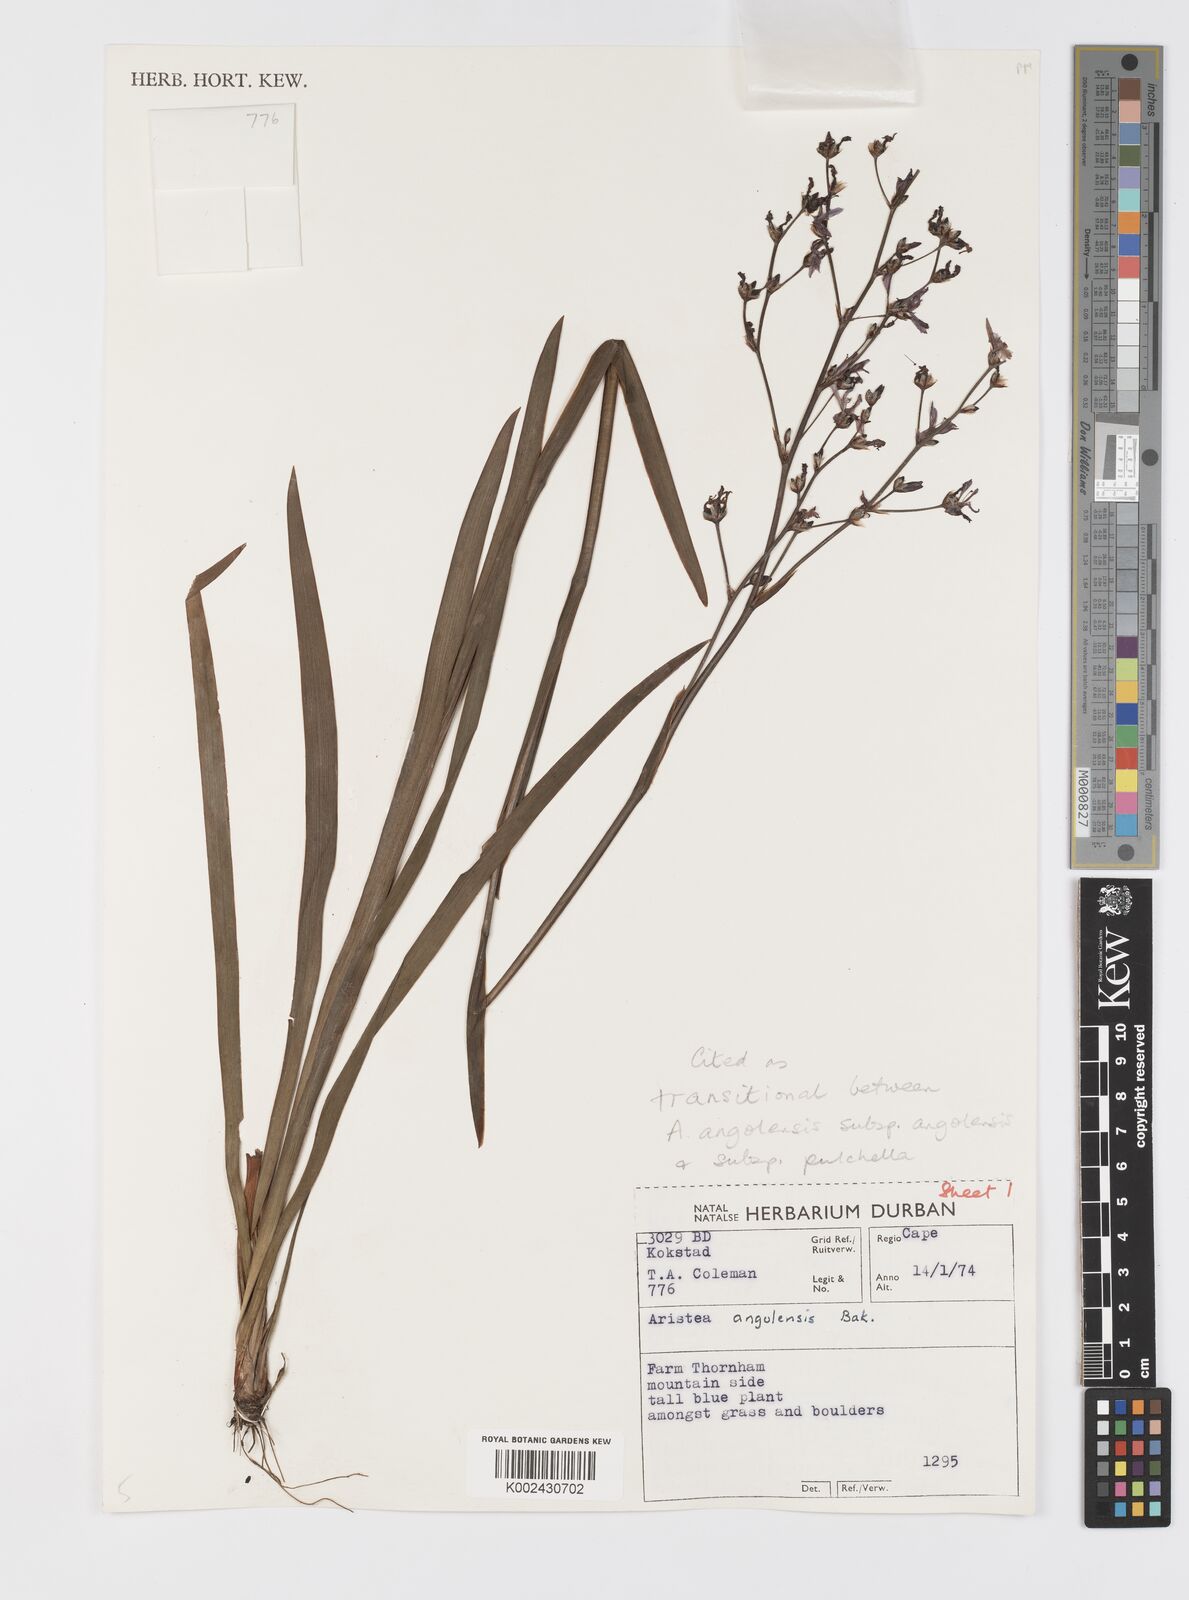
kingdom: Plantae
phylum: Tracheophyta
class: Liliopsida
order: Asparagales
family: Iridaceae
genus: Aristea
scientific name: Aristea bakeri
